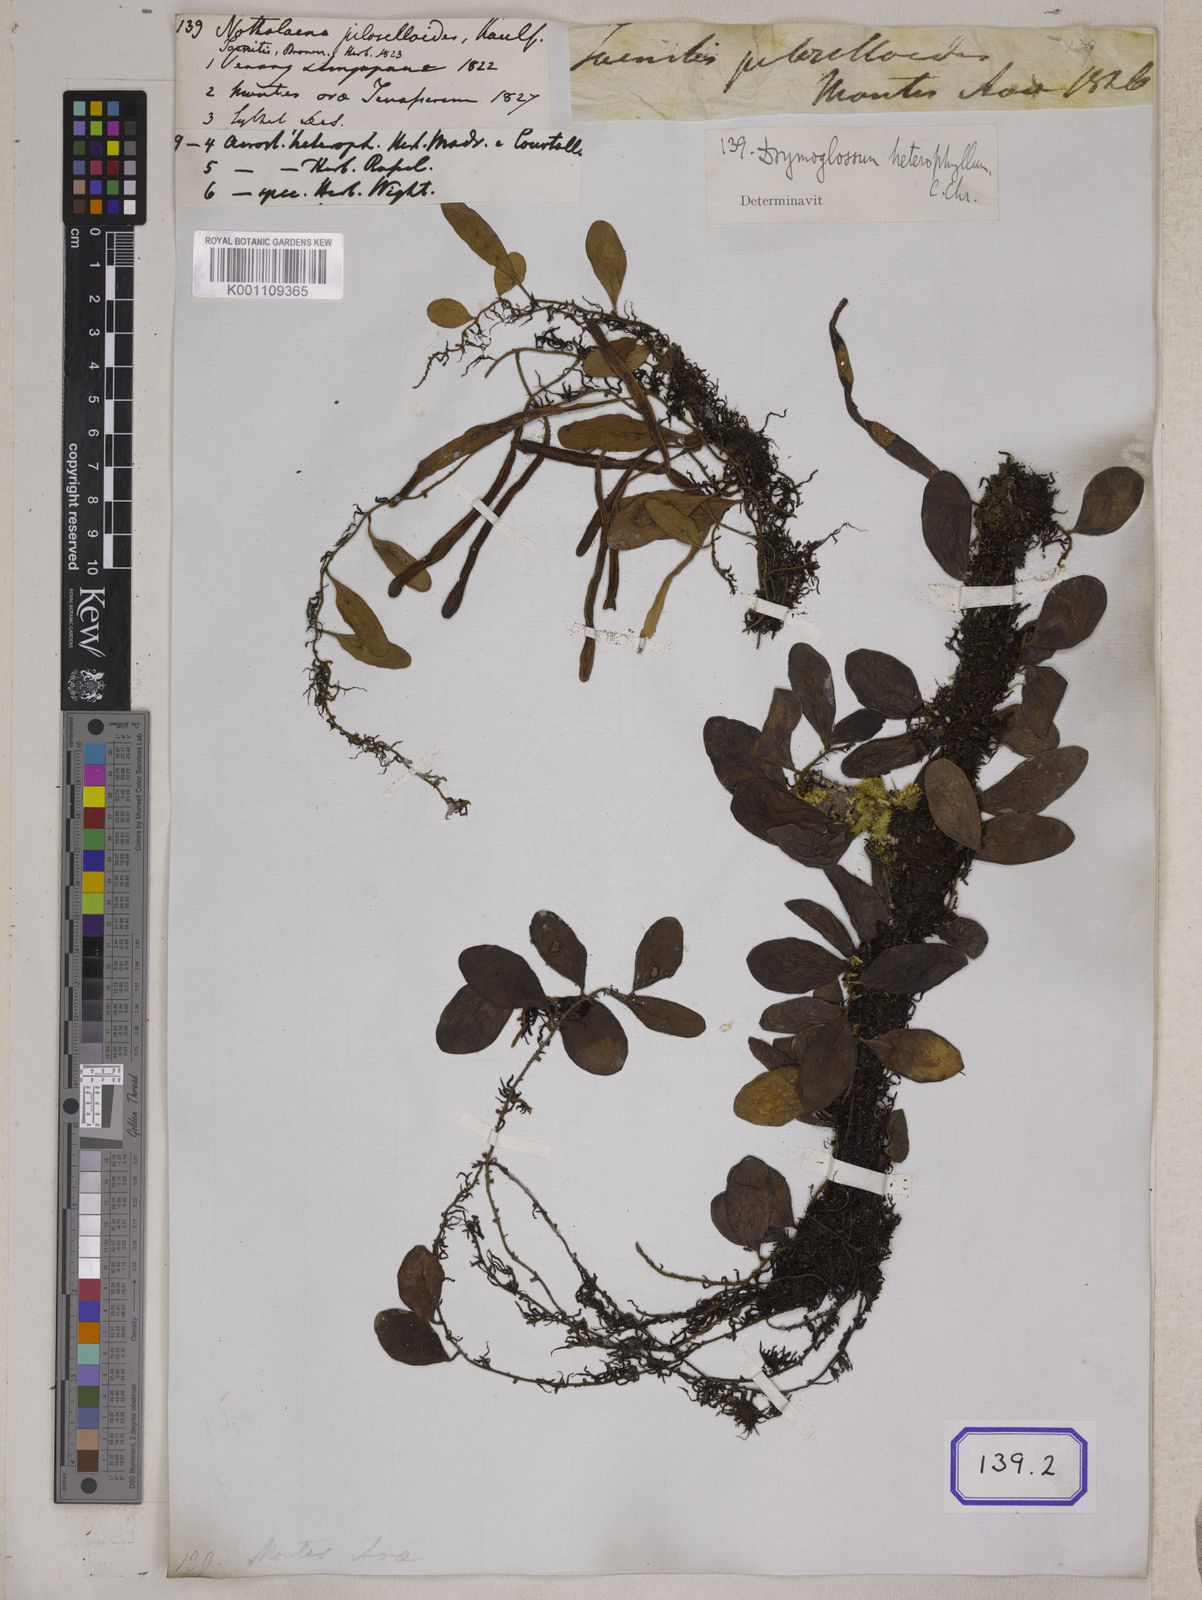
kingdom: Plantae
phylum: Tracheophyta
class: Polypodiopsida
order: Polypodiales
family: Polypodiaceae
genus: Pyrrosia
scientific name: Pyrrosia piloselloides
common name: Epiphytic creeping fern
